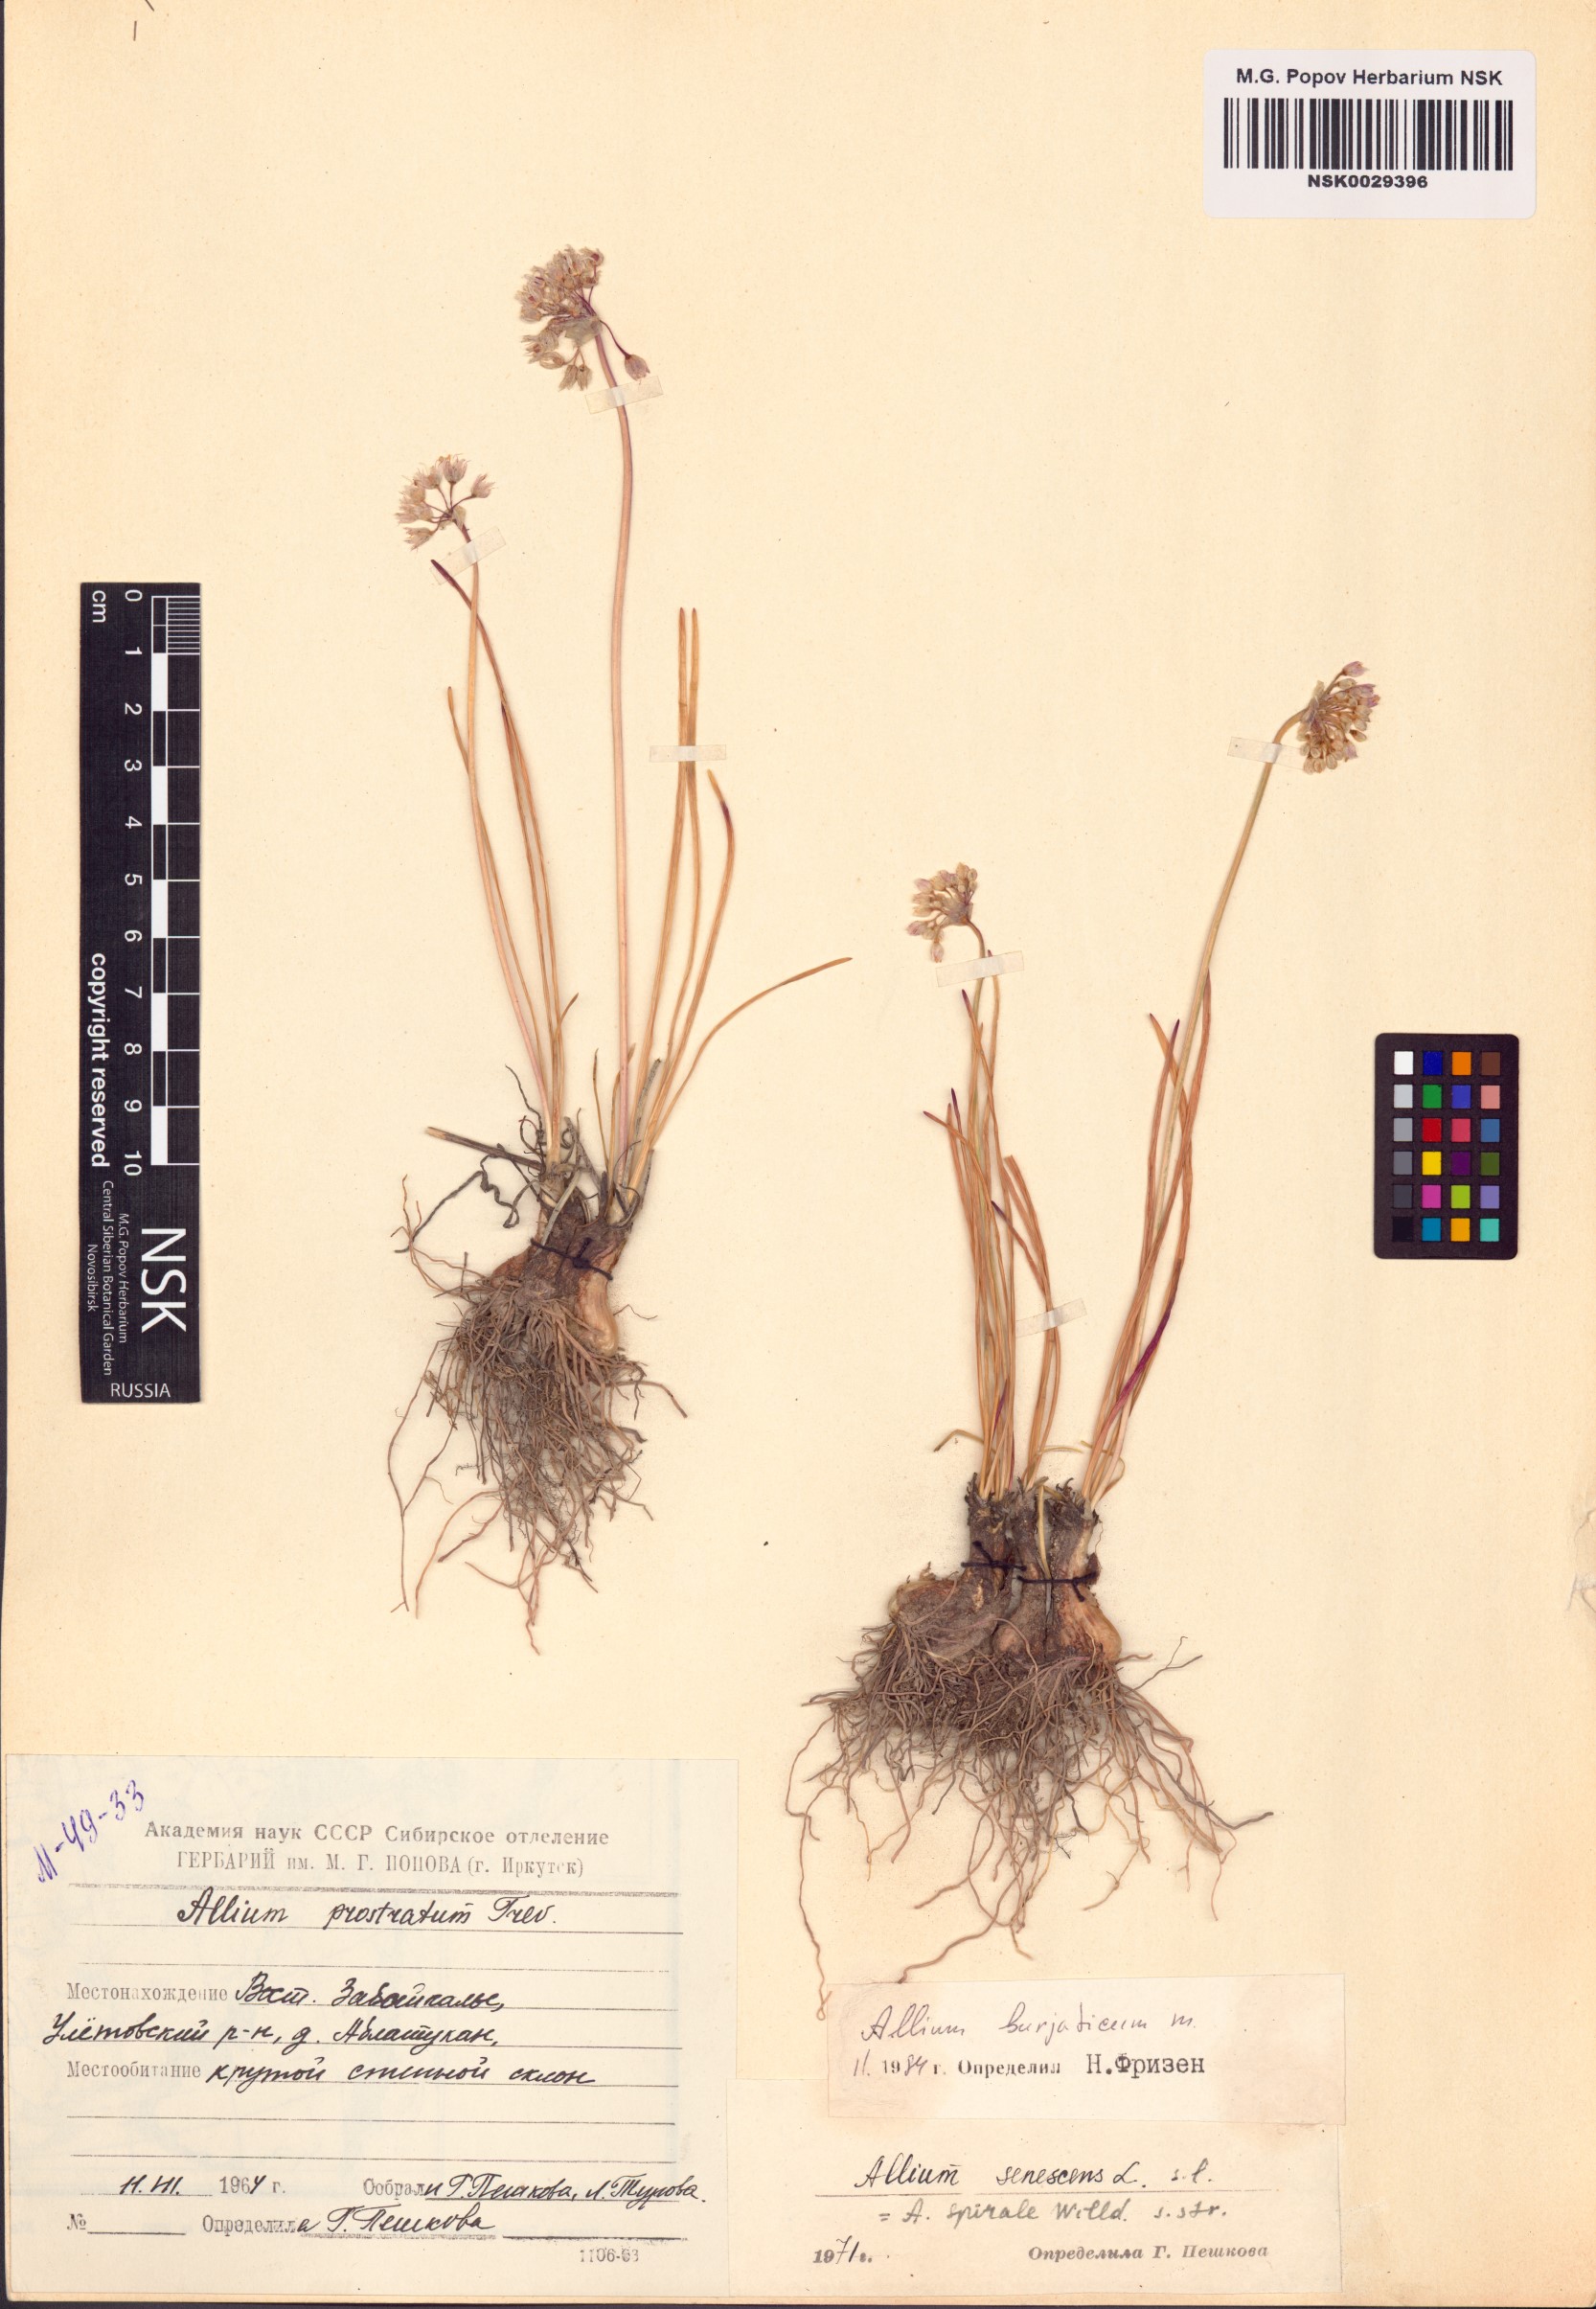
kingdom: Plantae
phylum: Tracheophyta
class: Liliopsida
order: Asparagales
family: Amaryllidaceae
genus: Allium
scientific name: Allium burjaticum
